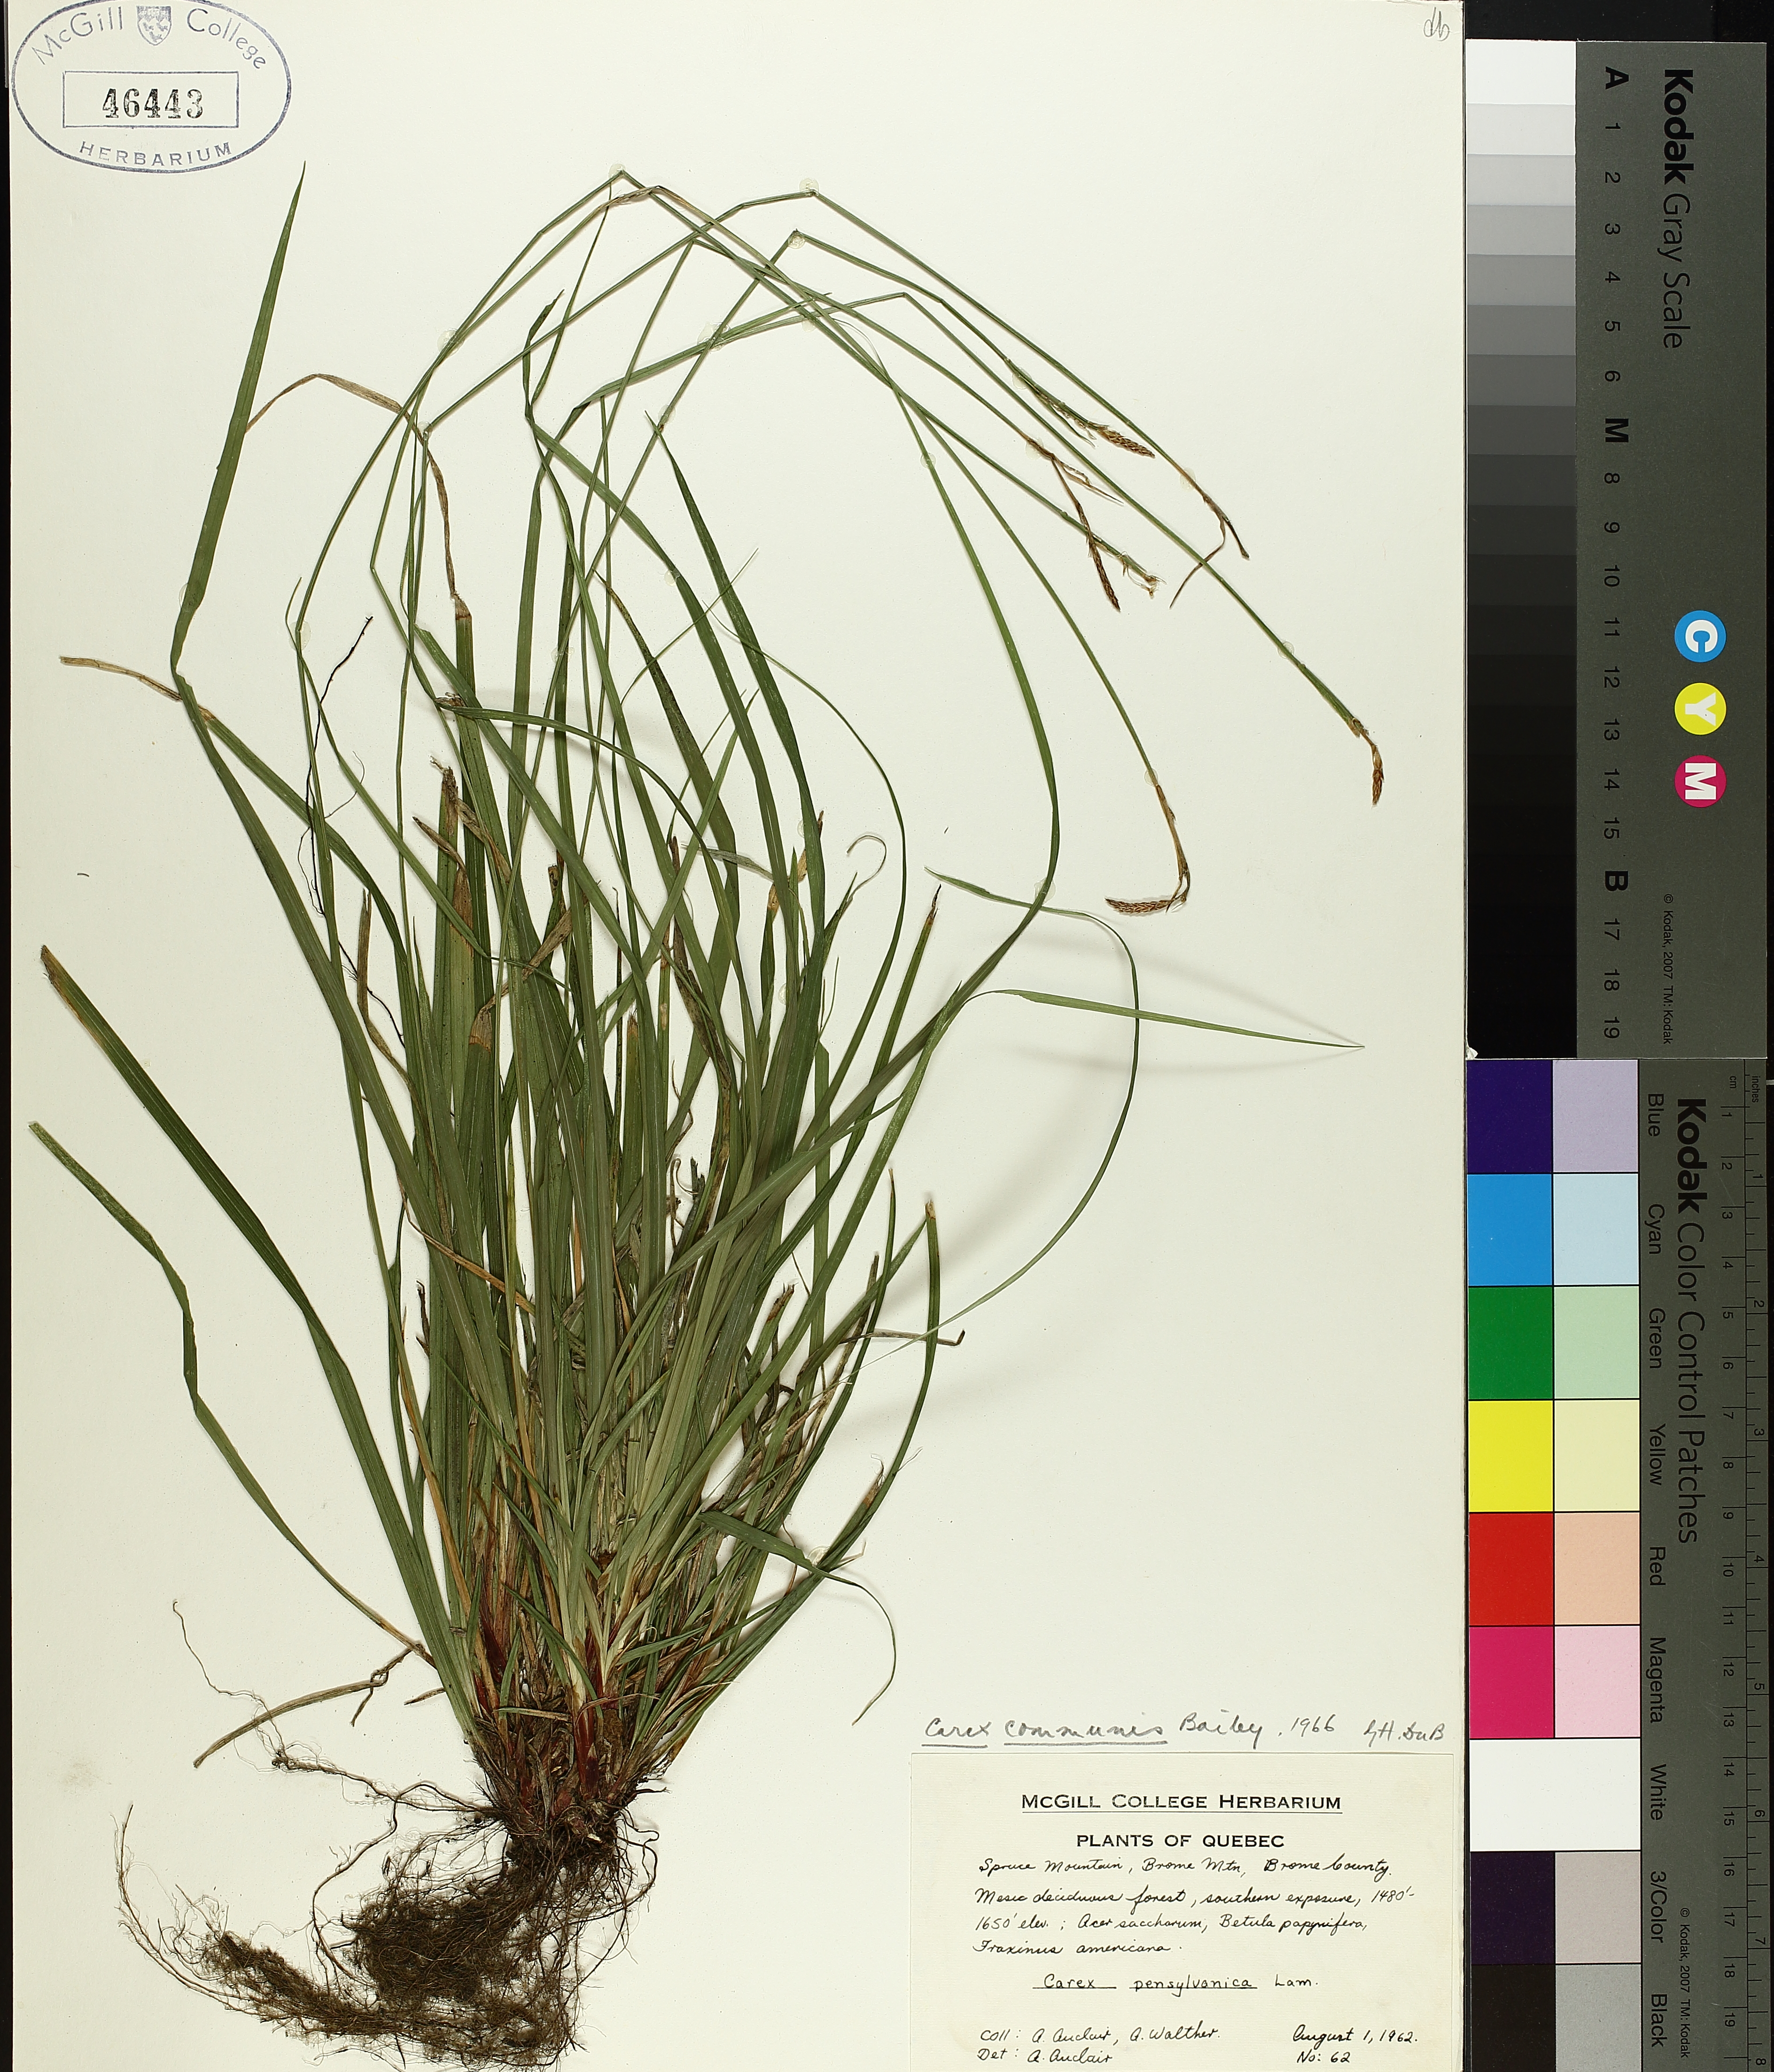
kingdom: Plantae
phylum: Tracheophyta
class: Liliopsida
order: Poales
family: Cyperaceae
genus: Carex
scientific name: Carex communis
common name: Colonial oak sedge
